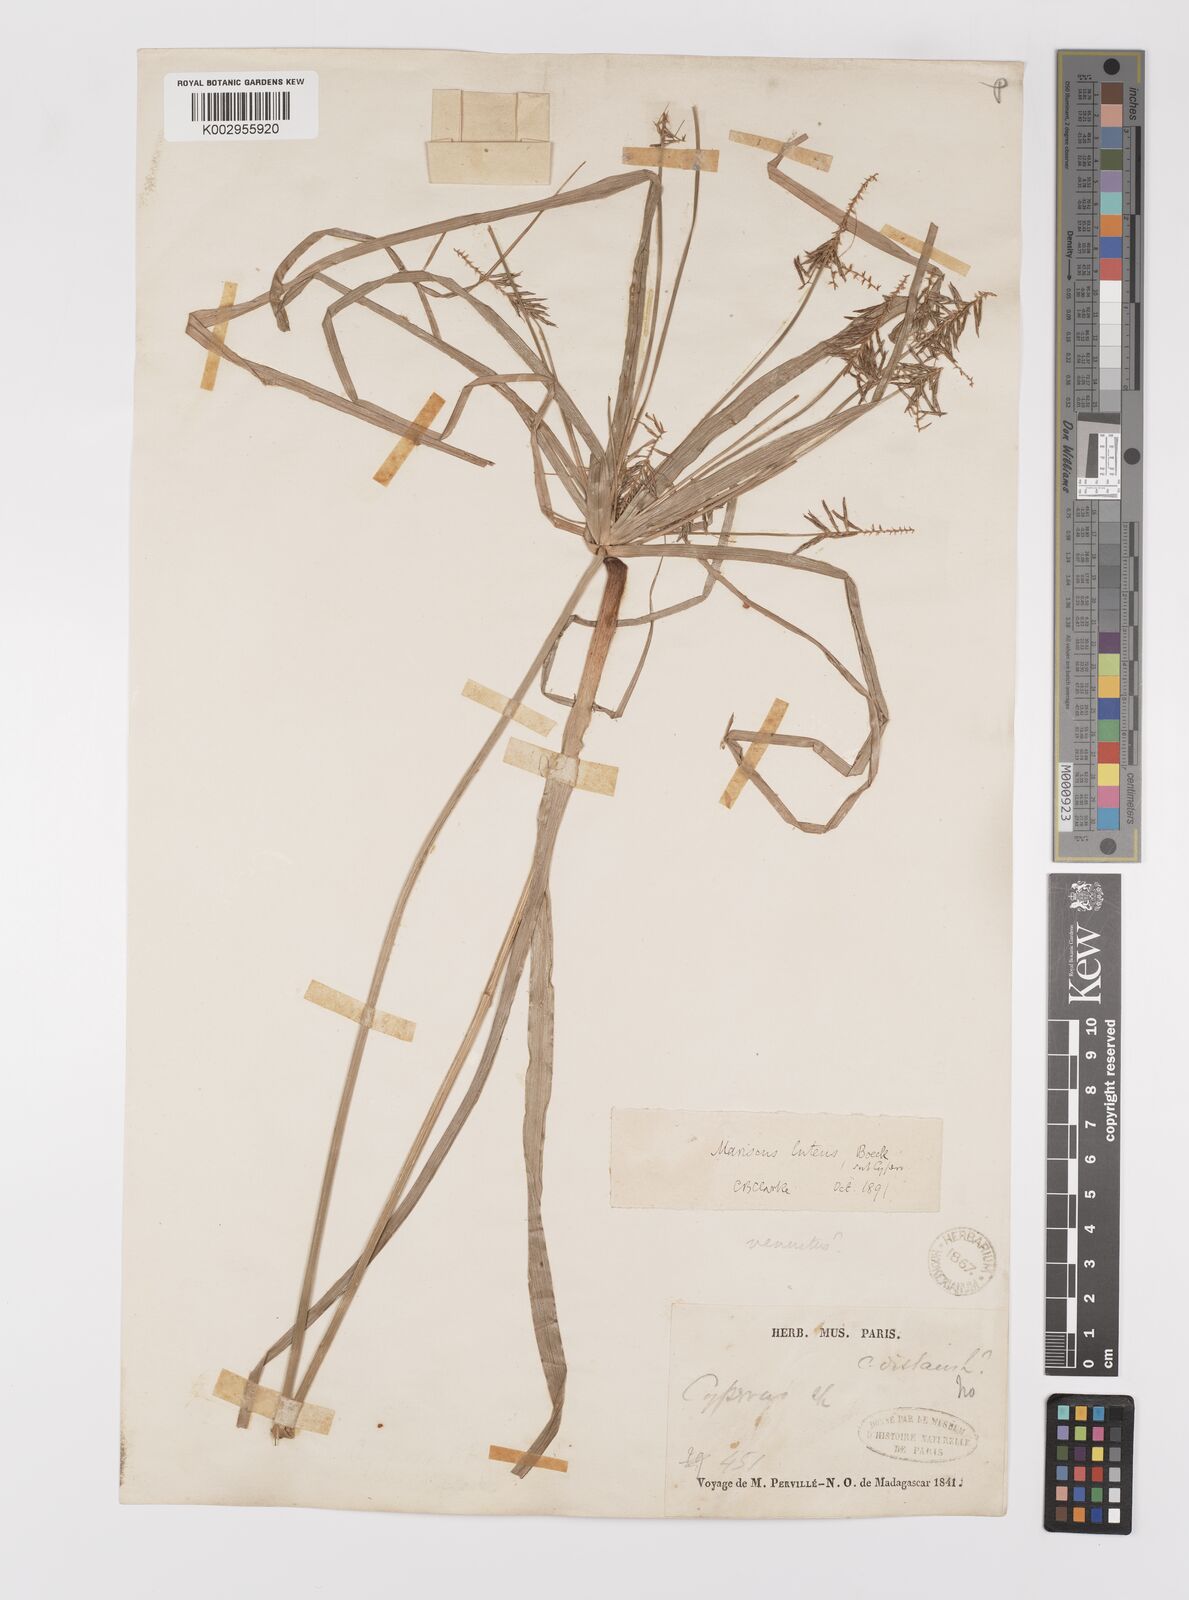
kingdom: Plantae
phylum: Tracheophyta
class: Liliopsida
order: Poales
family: Cyperaceae
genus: Cyperus
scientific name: Cyperus luteus
